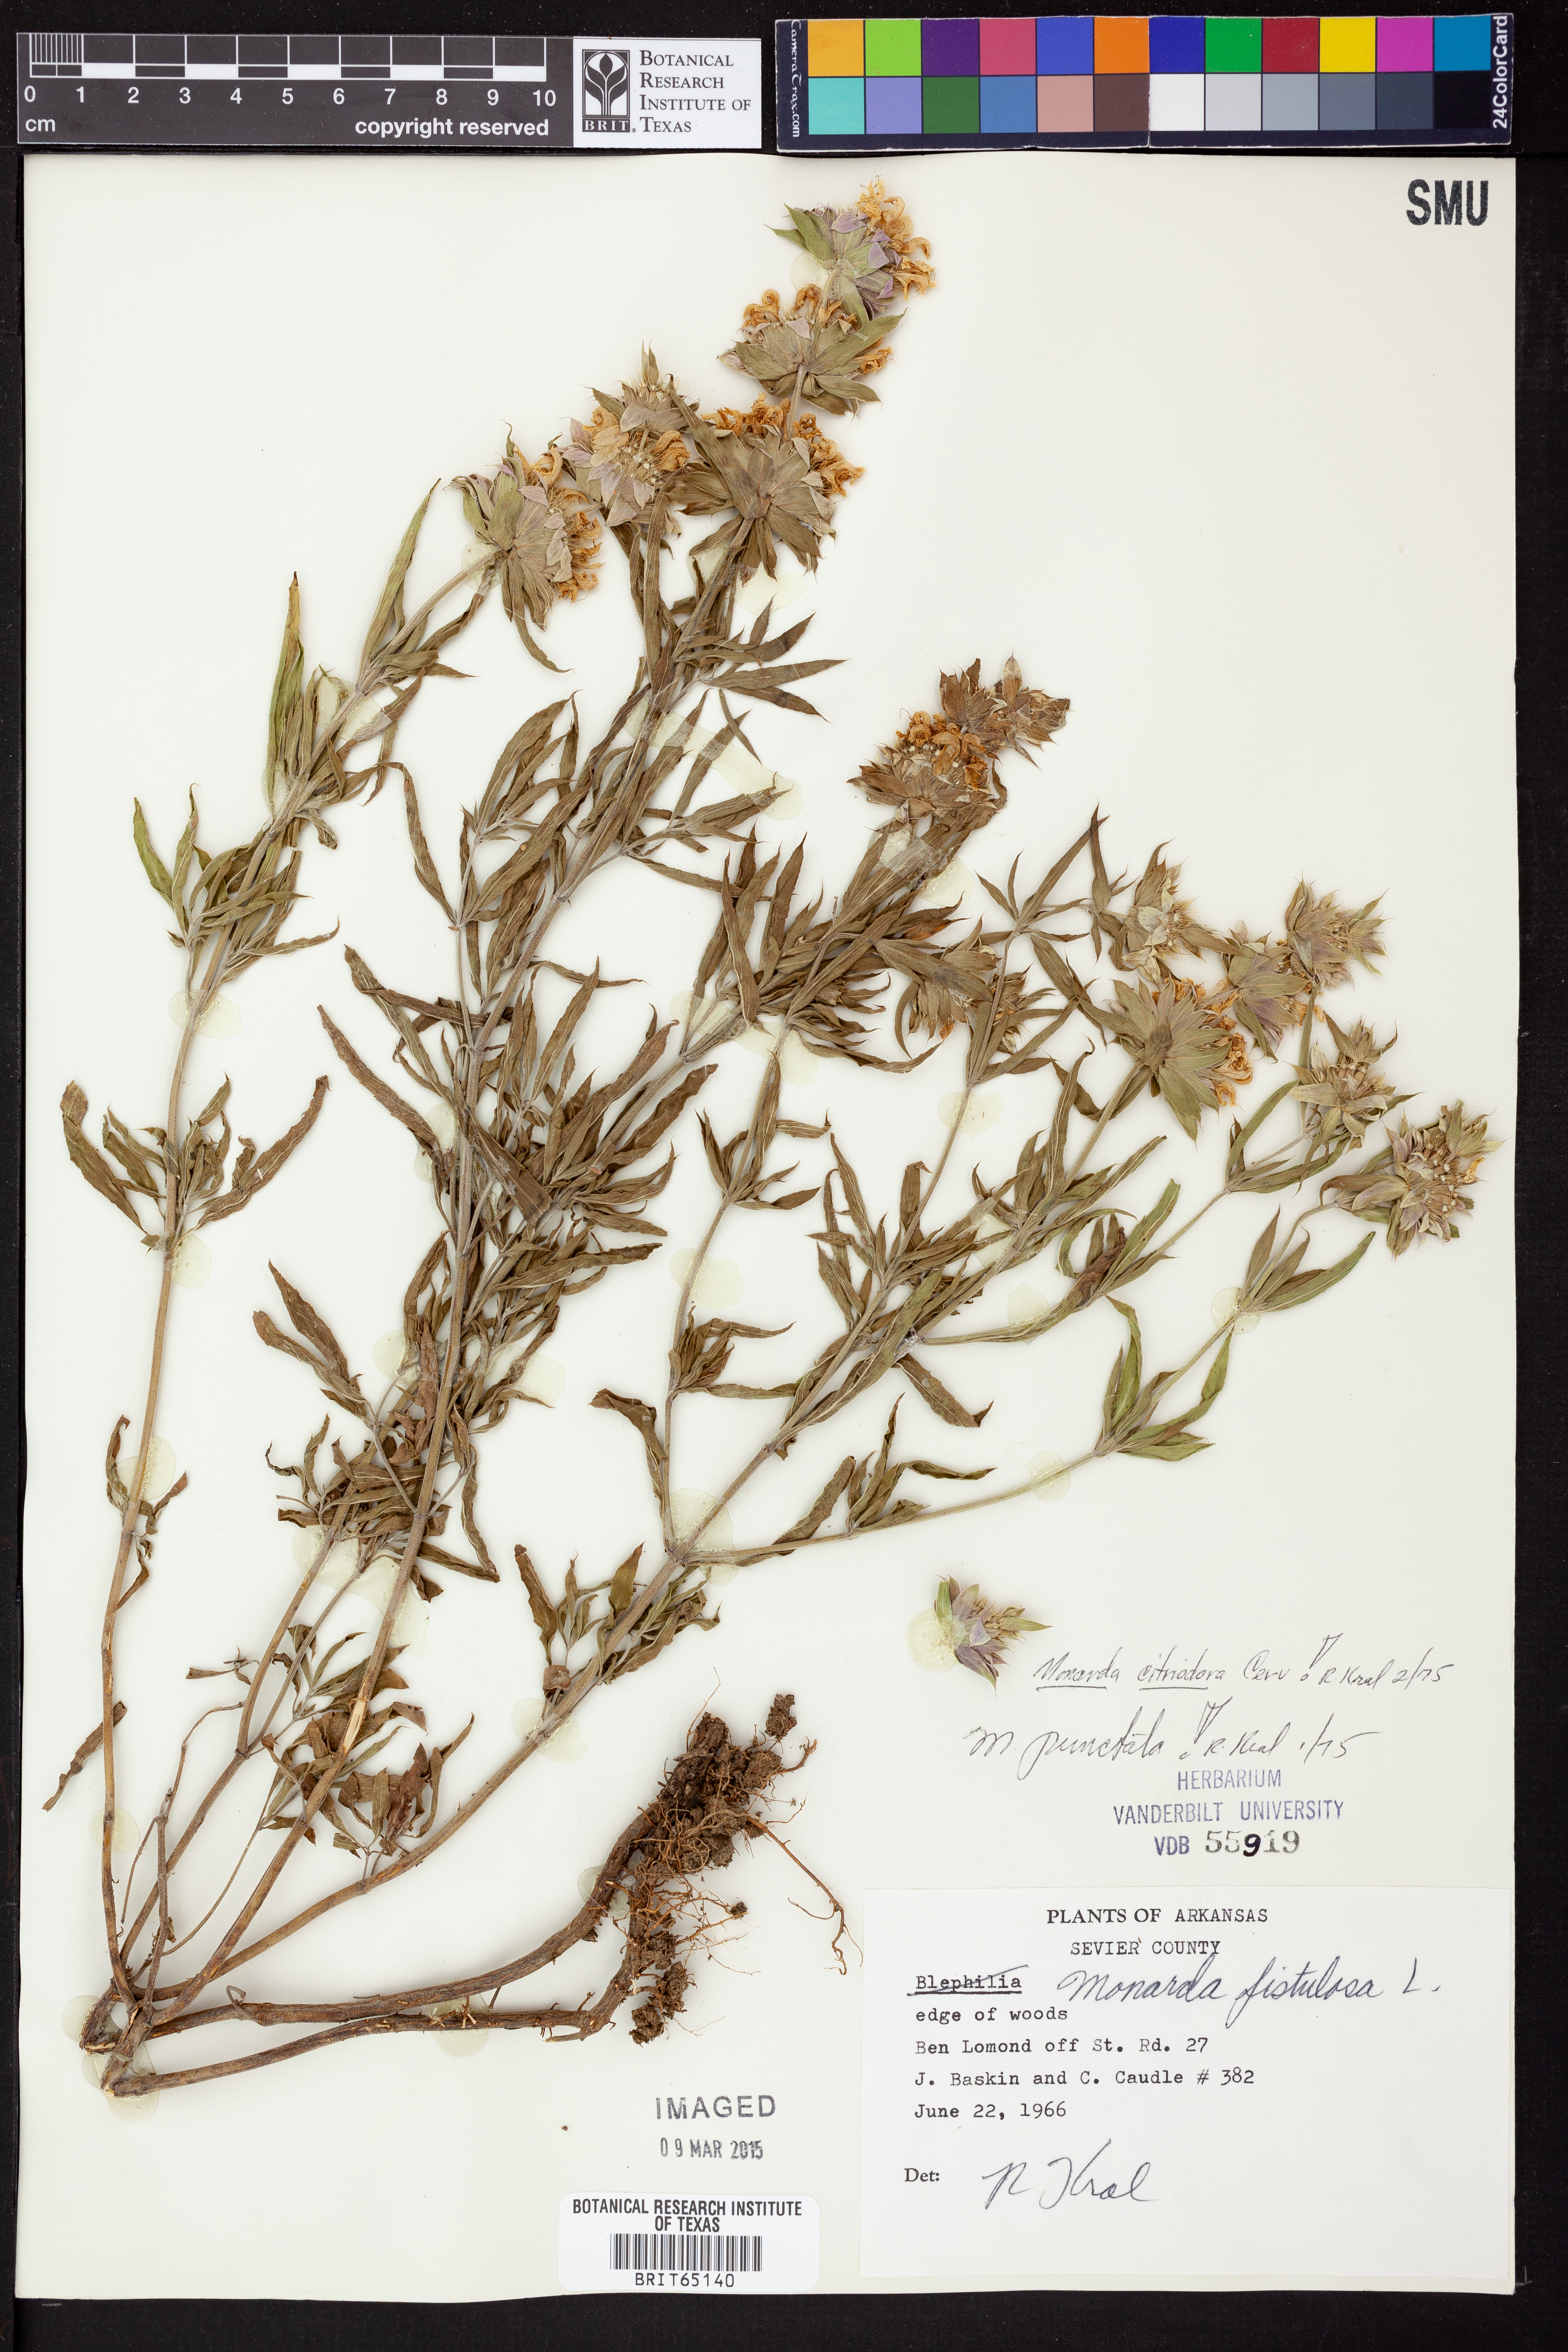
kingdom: Plantae
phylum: Tracheophyta
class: Magnoliopsida
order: Lamiales
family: Lamiaceae
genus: Monarda
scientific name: Monarda citriodora
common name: Lemon beebalm
